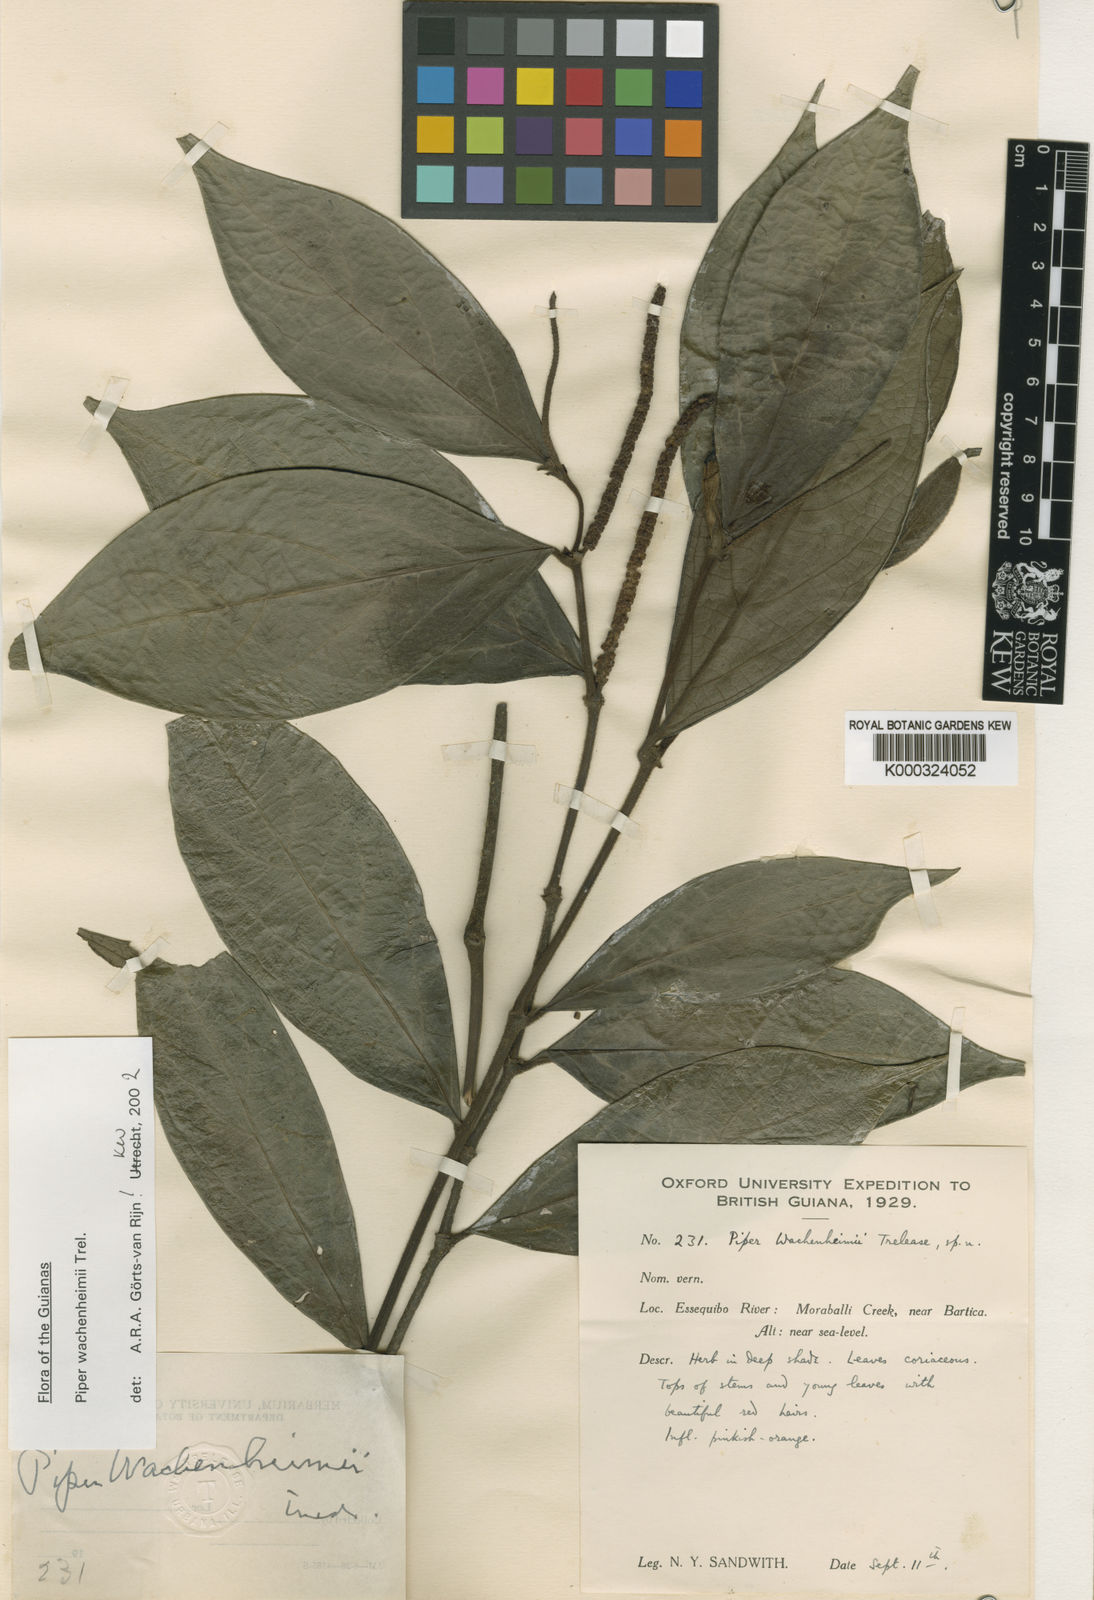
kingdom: Plantae
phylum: Tracheophyta
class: Magnoliopsida
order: Piperales
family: Piperaceae
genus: Piper
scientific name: Piper wachenheimii
